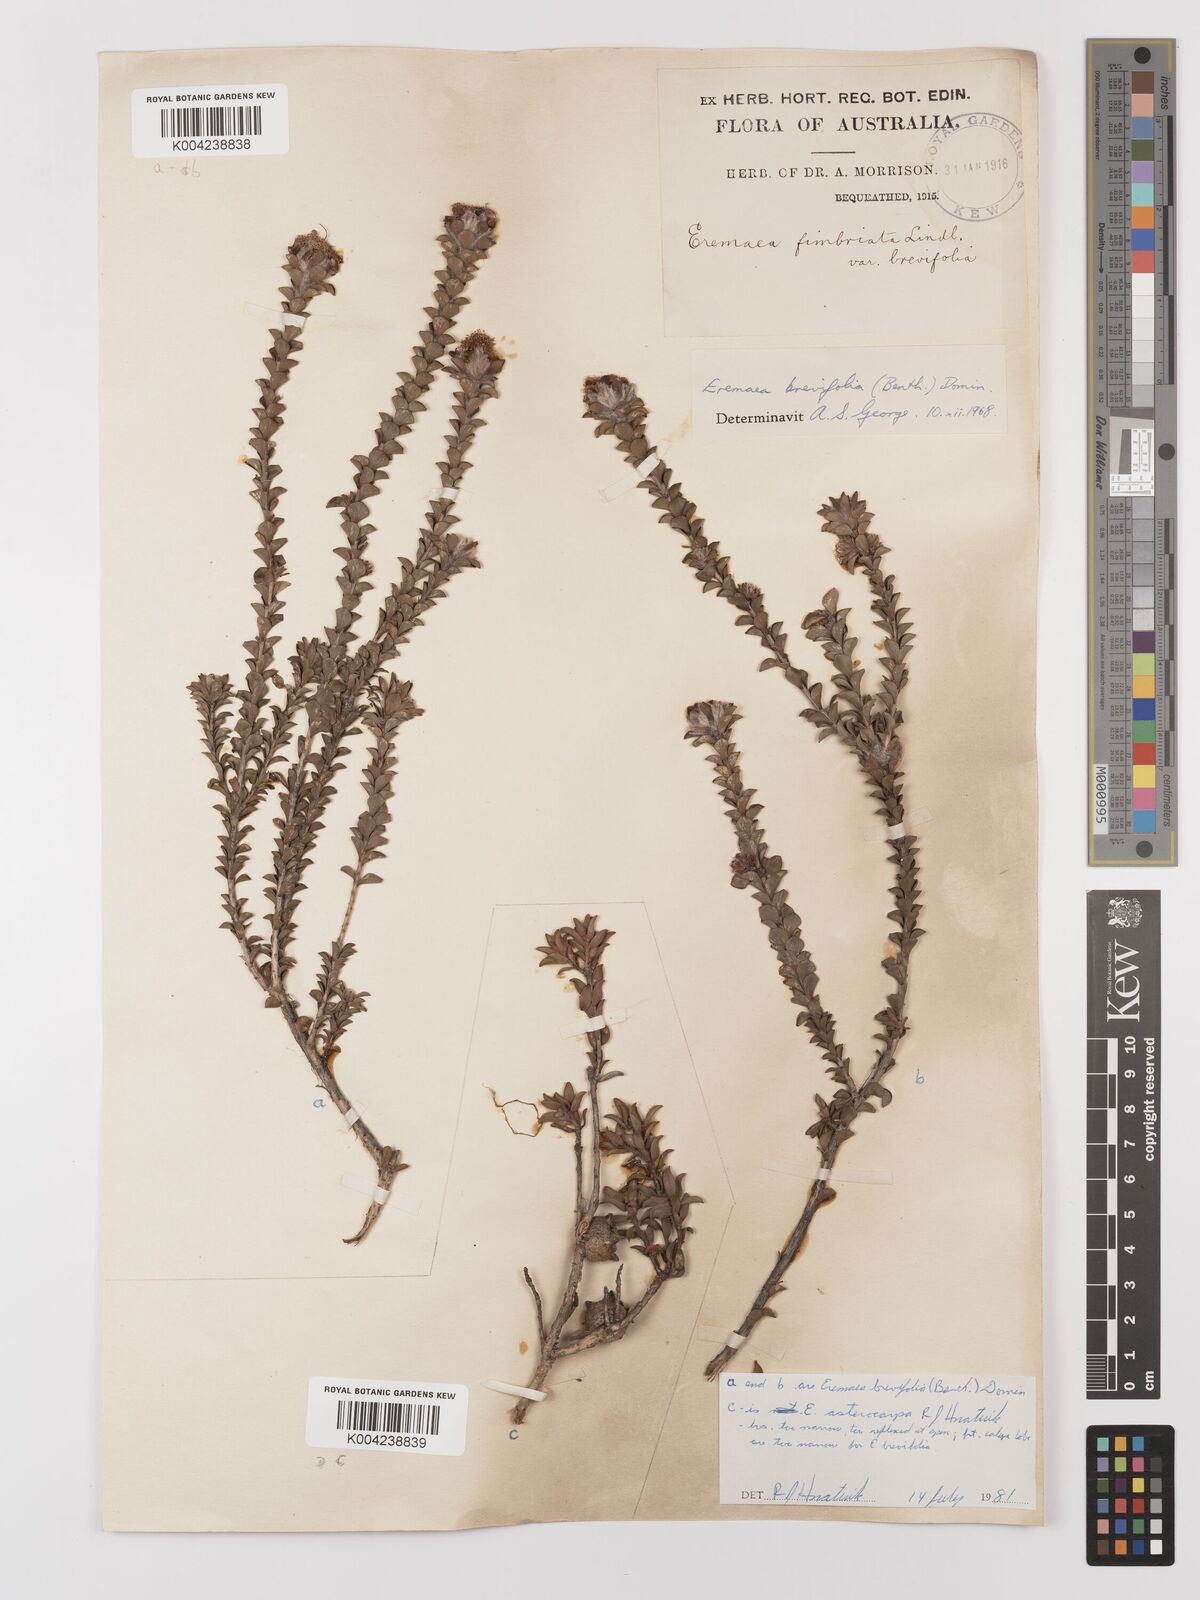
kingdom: Plantae
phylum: Tracheophyta
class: Magnoliopsida
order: Myrtales
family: Myrtaceae
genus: Melaleuca
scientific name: Melaleuca curtifolia
